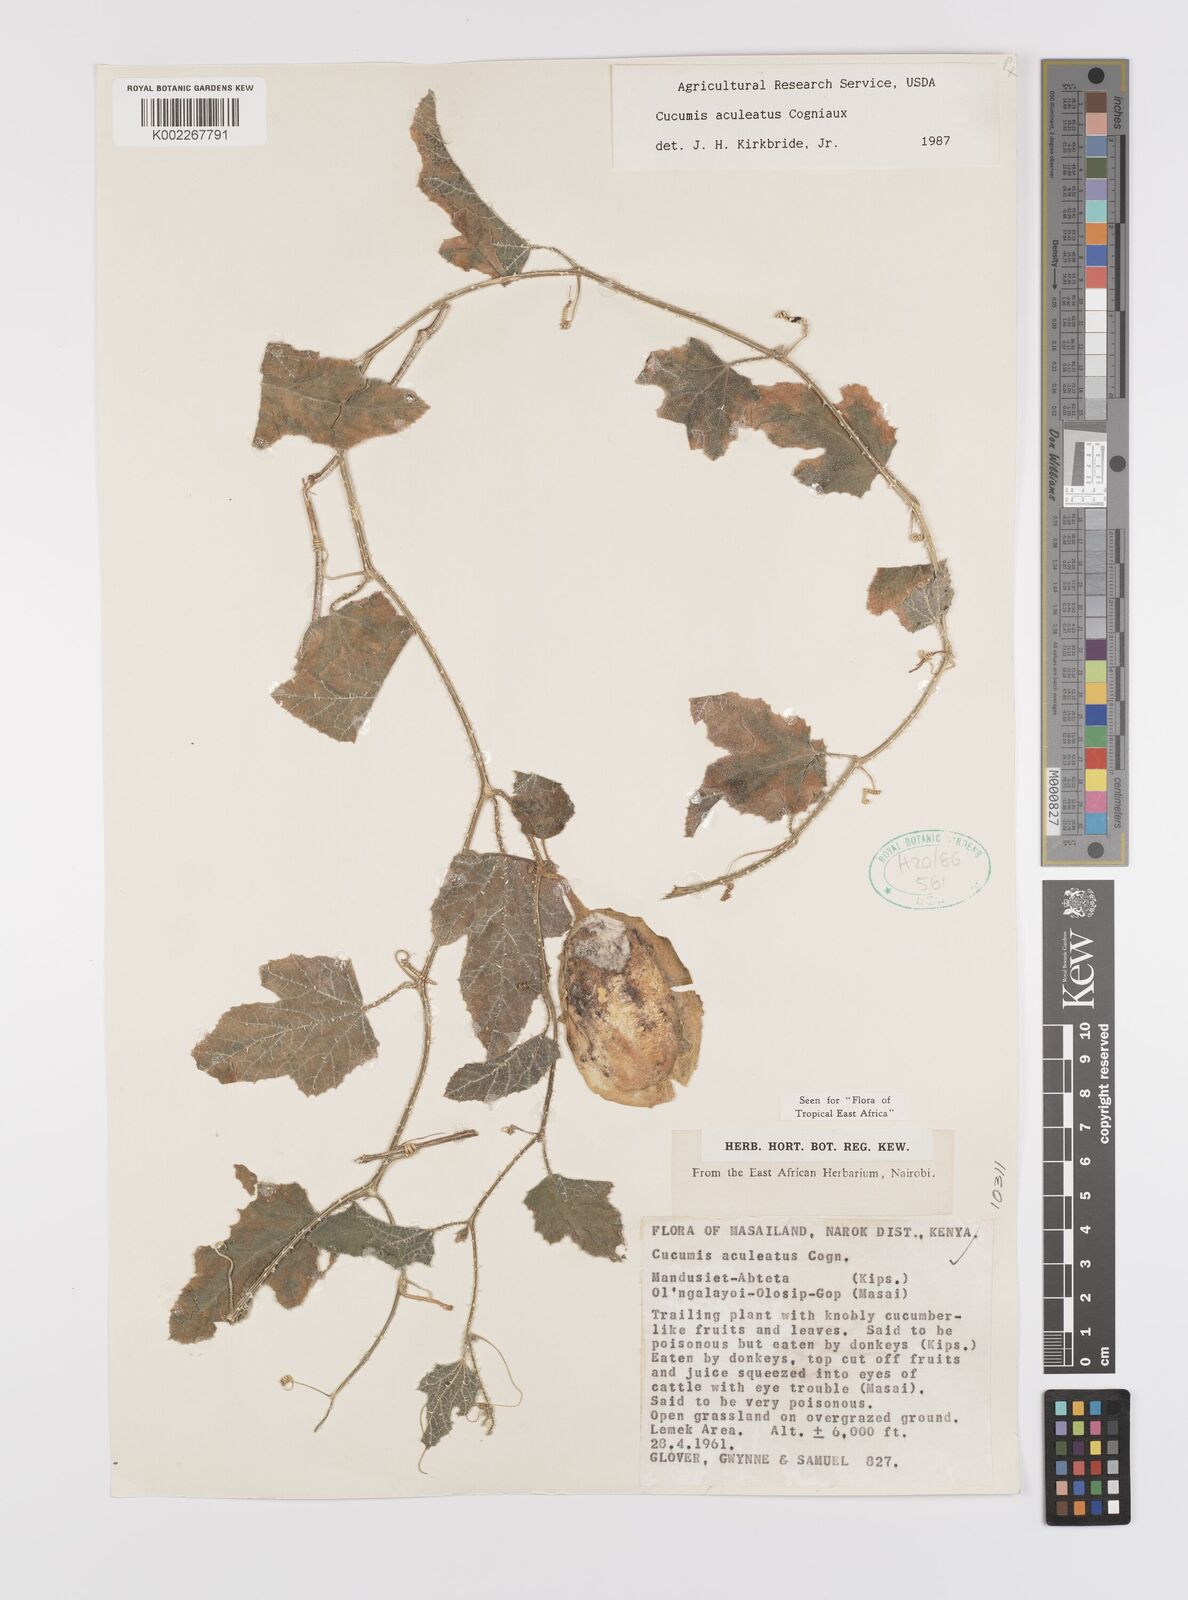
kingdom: Plantae
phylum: Tracheophyta
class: Magnoliopsida
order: Cucurbitales
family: Cucurbitaceae
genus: Cucumis
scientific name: Cucumis aculeatus
